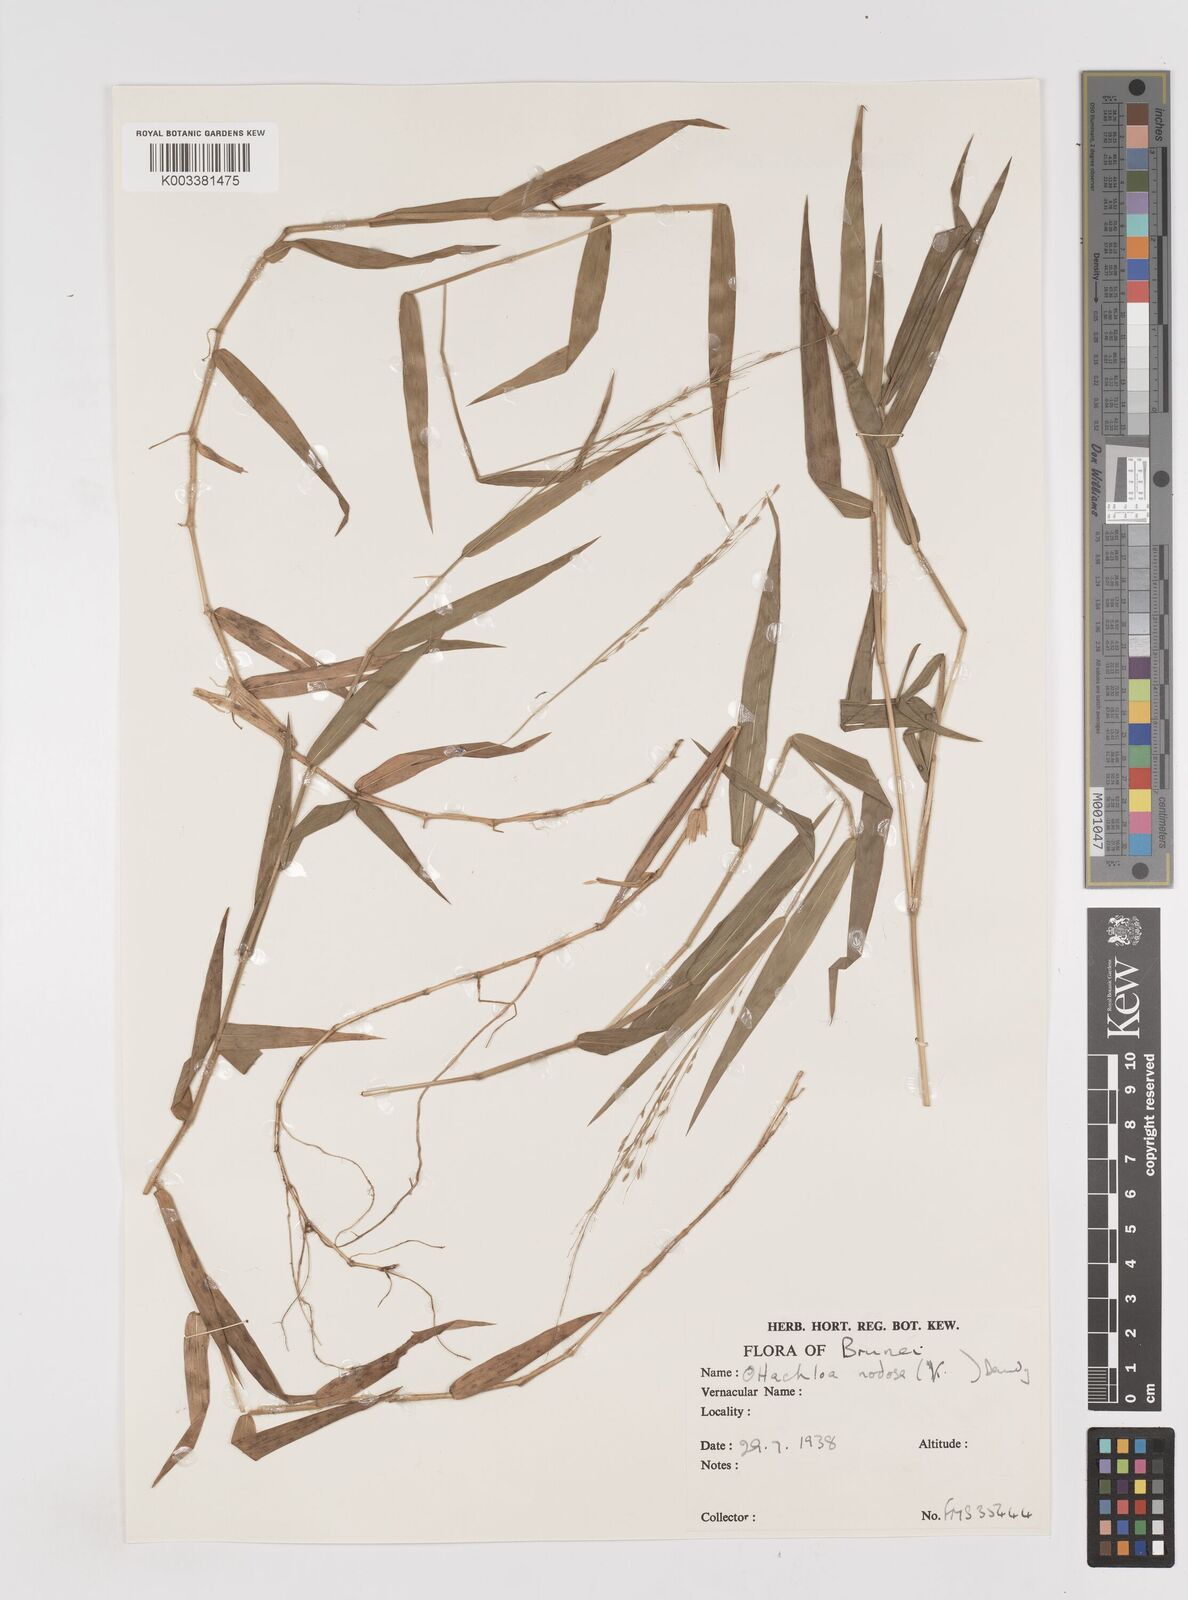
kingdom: Plantae
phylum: Tracheophyta
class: Liliopsida
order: Poales
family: Poaceae
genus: Ottochloa
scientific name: Ottochloa nodosa
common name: Slender-panic grass
